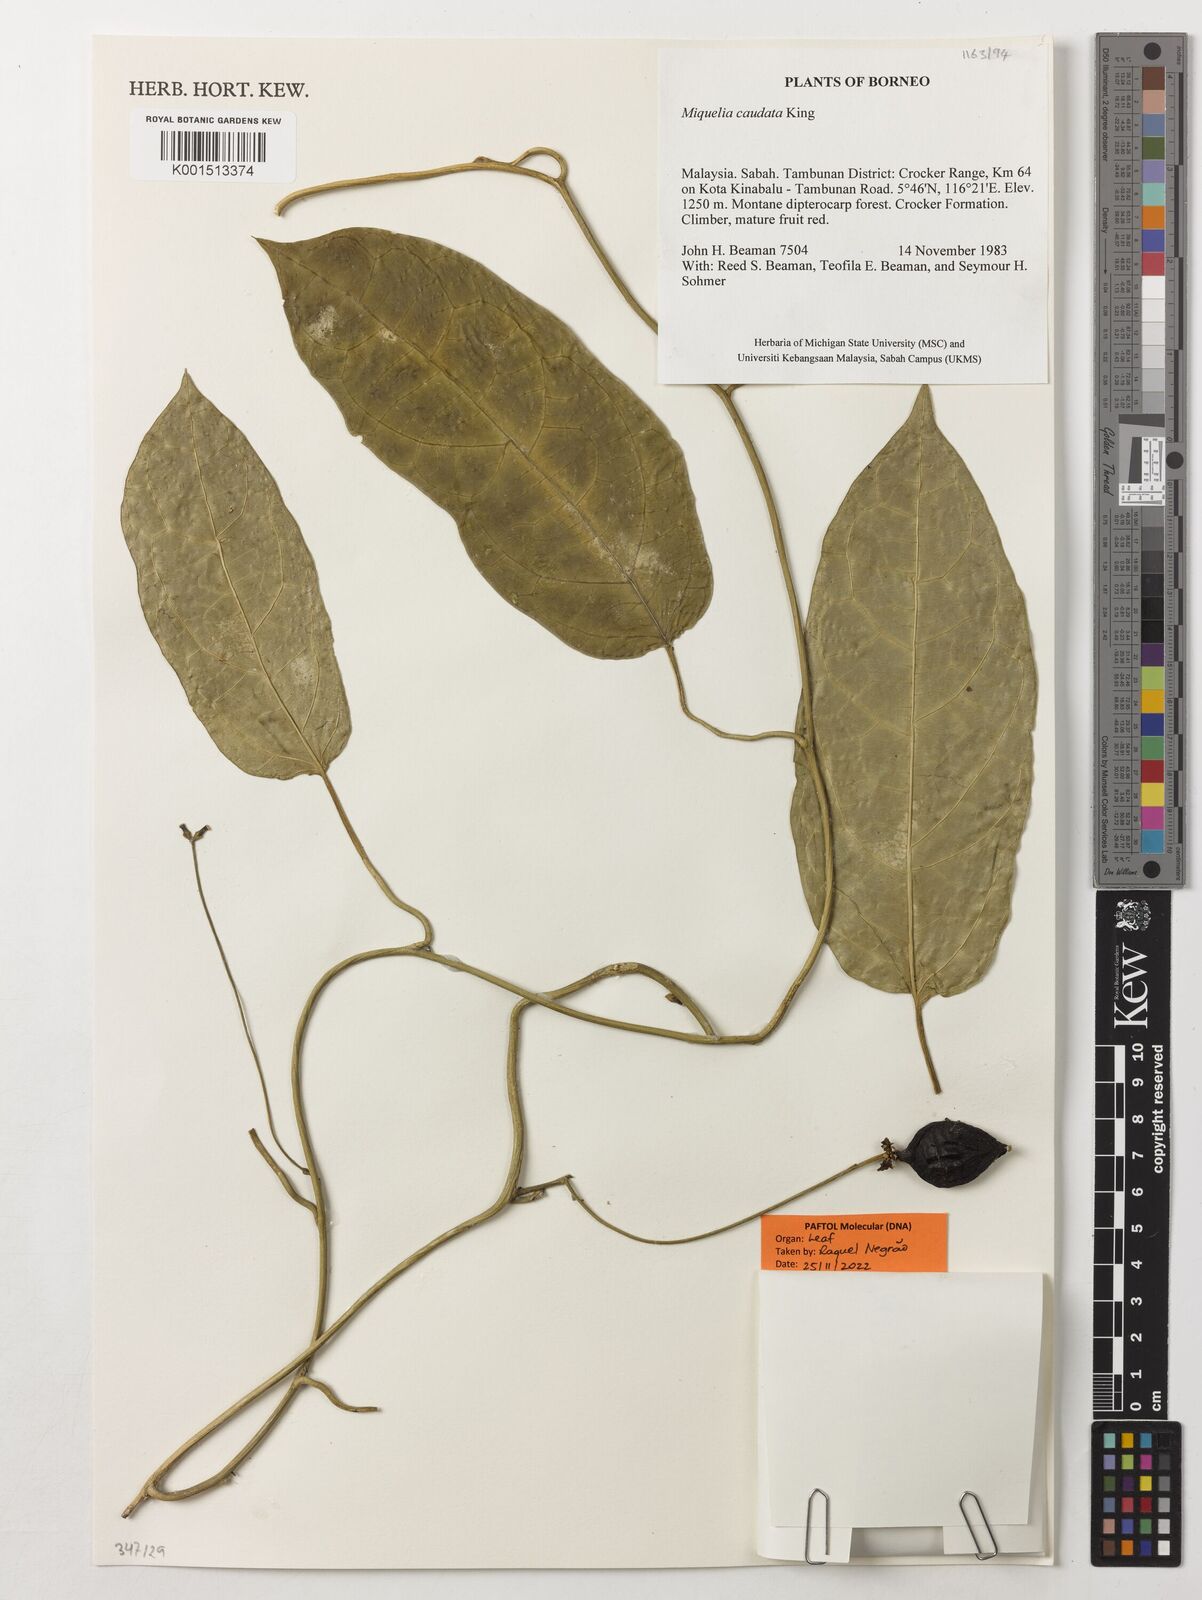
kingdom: Plantae
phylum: Tracheophyta
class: Magnoliopsida
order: Icacinales
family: Icacinaceae
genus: Miquelia
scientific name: Miquelia caudata
